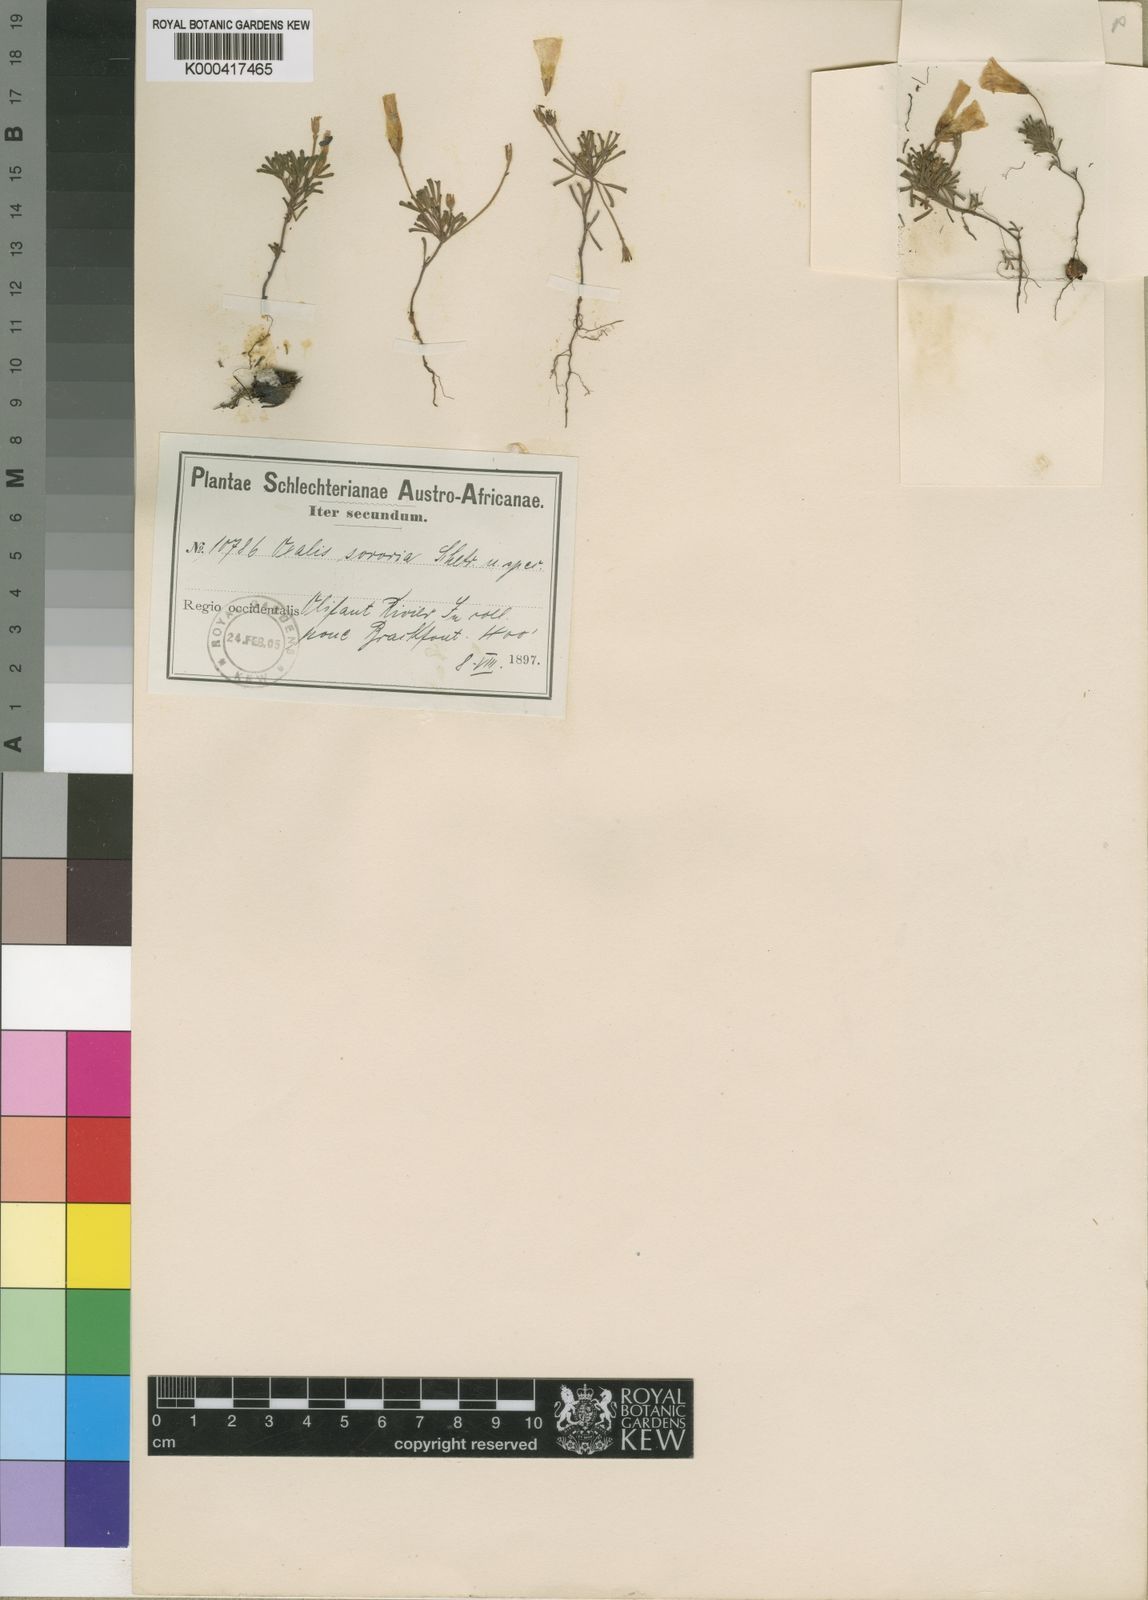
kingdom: Plantae
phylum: Tracheophyta
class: Magnoliopsida
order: Oxalidales
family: Oxalidaceae
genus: Oxalis
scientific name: Oxalis recticaulis
